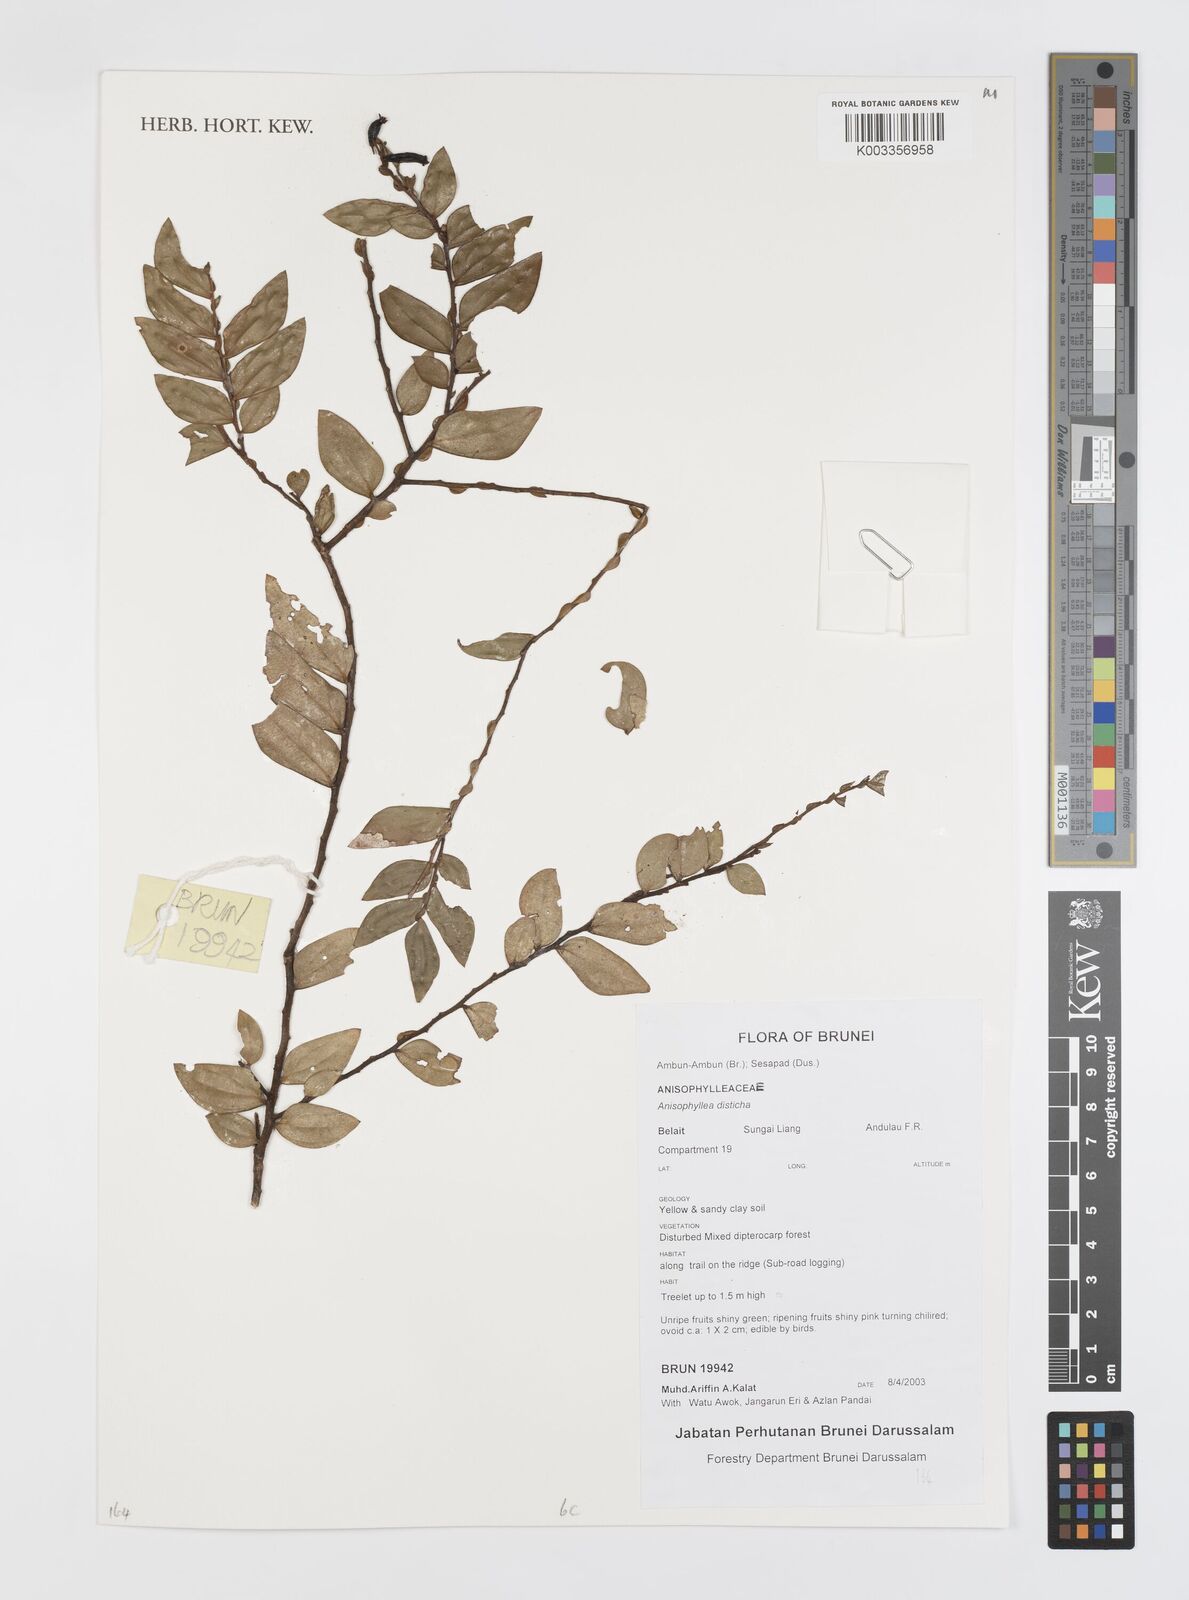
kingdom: Plantae
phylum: Tracheophyta
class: Magnoliopsida
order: Cucurbitales
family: Anisophylleaceae
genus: Anisophyllea
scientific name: Anisophyllea disticha
